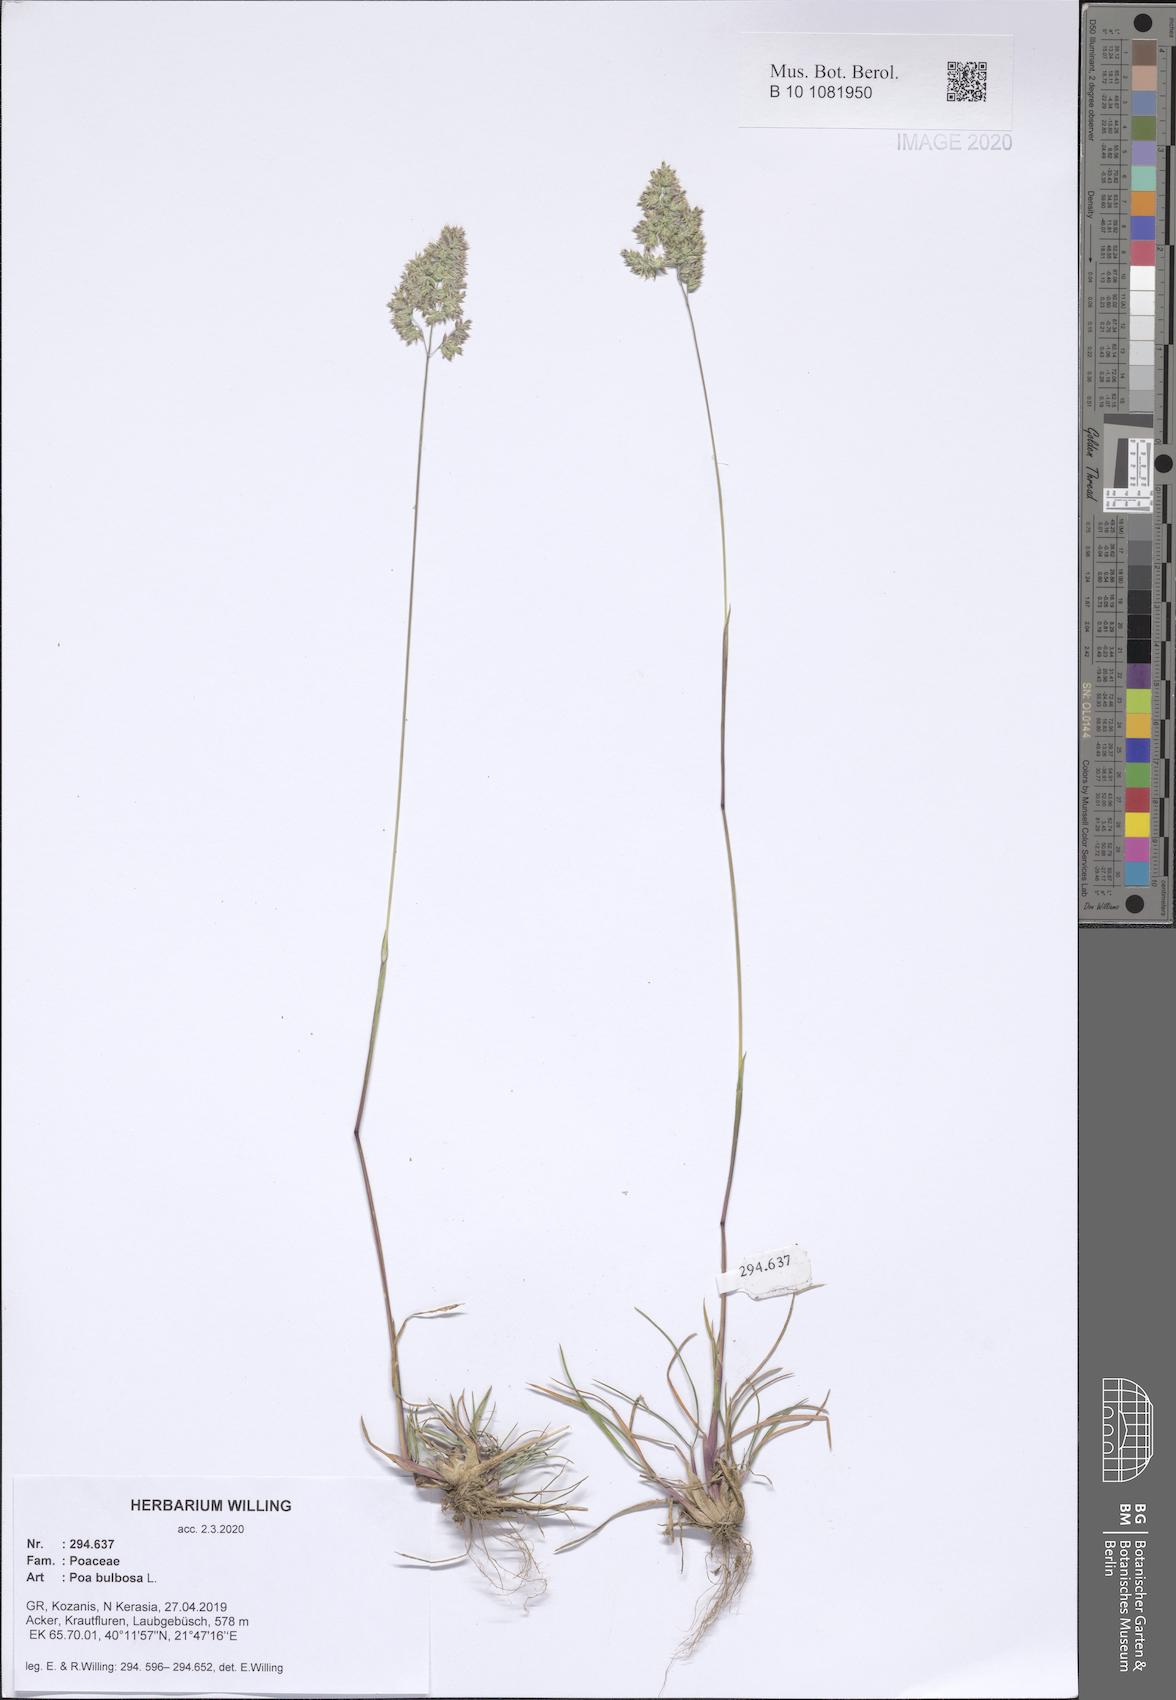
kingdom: Plantae
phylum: Tracheophyta
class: Liliopsida
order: Poales
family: Poaceae
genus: Poa
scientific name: Poa bulbosa
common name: Bulbous bluegrass
